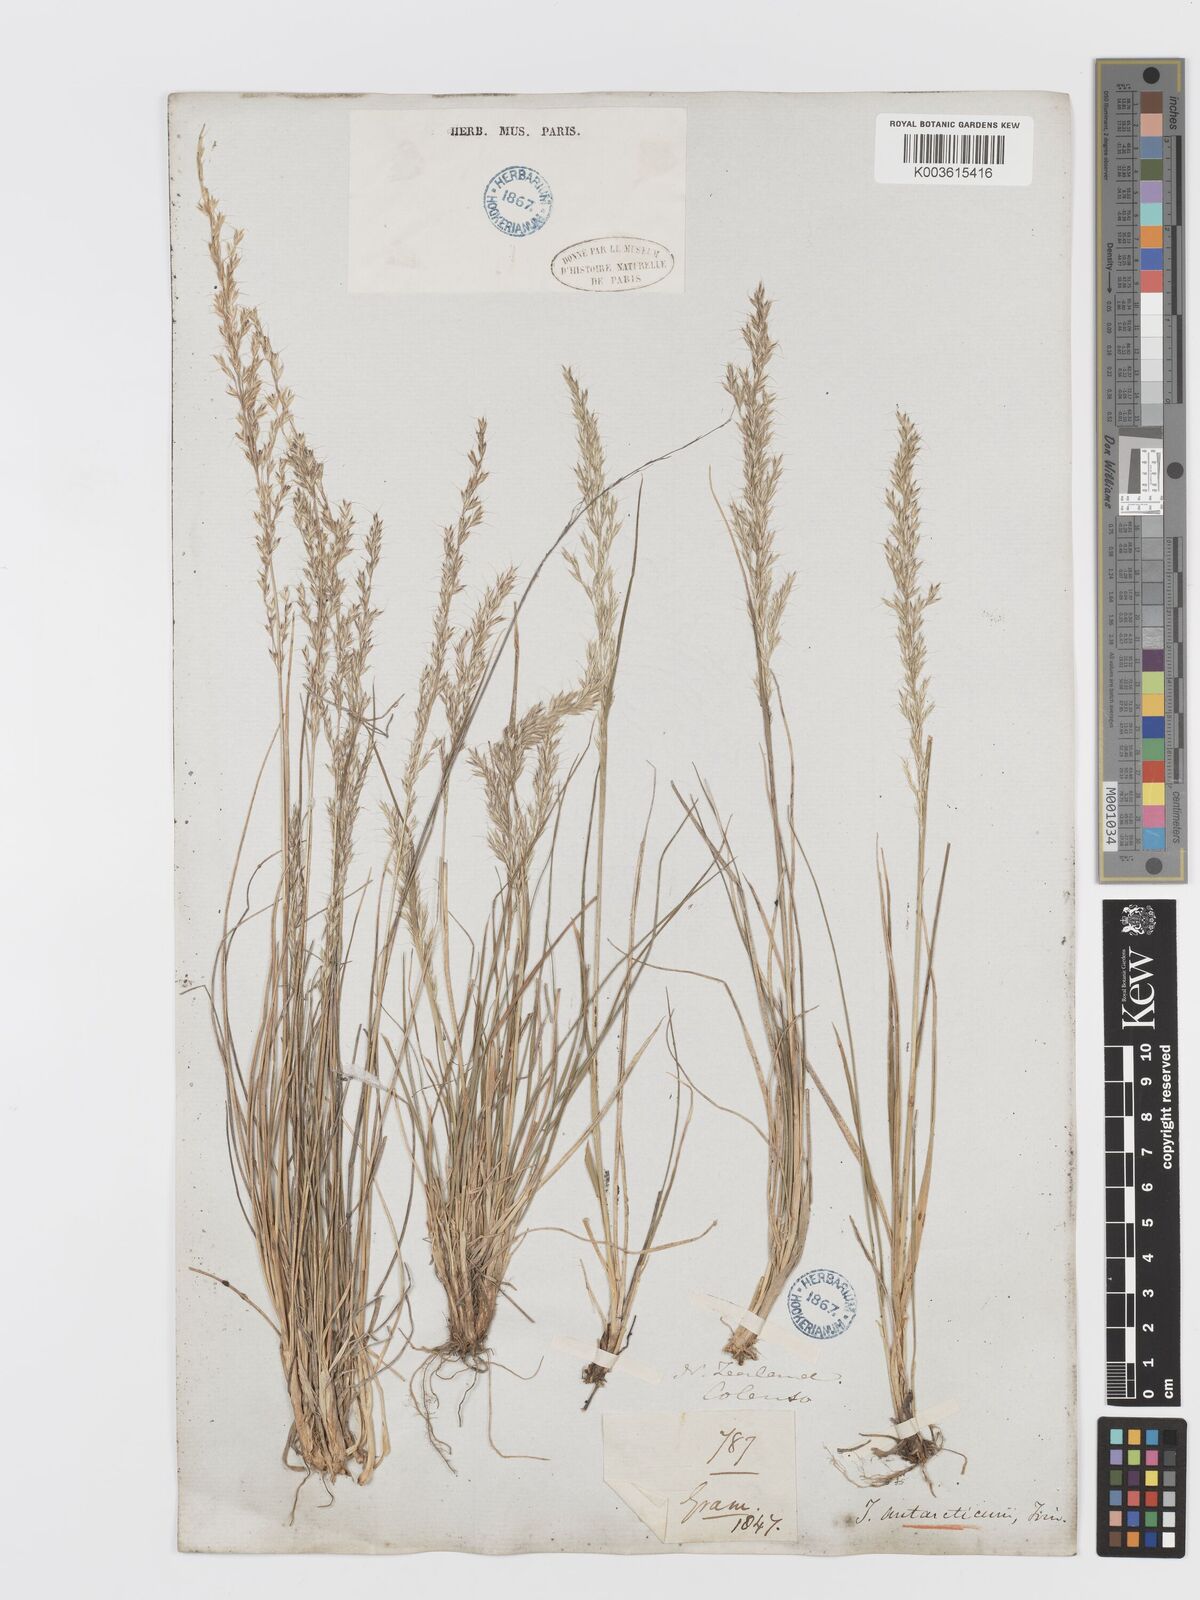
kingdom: Plantae
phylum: Tracheophyta
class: Liliopsida
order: Poales
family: Poaceae
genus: Koeleria
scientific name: Koeleria antarctica
